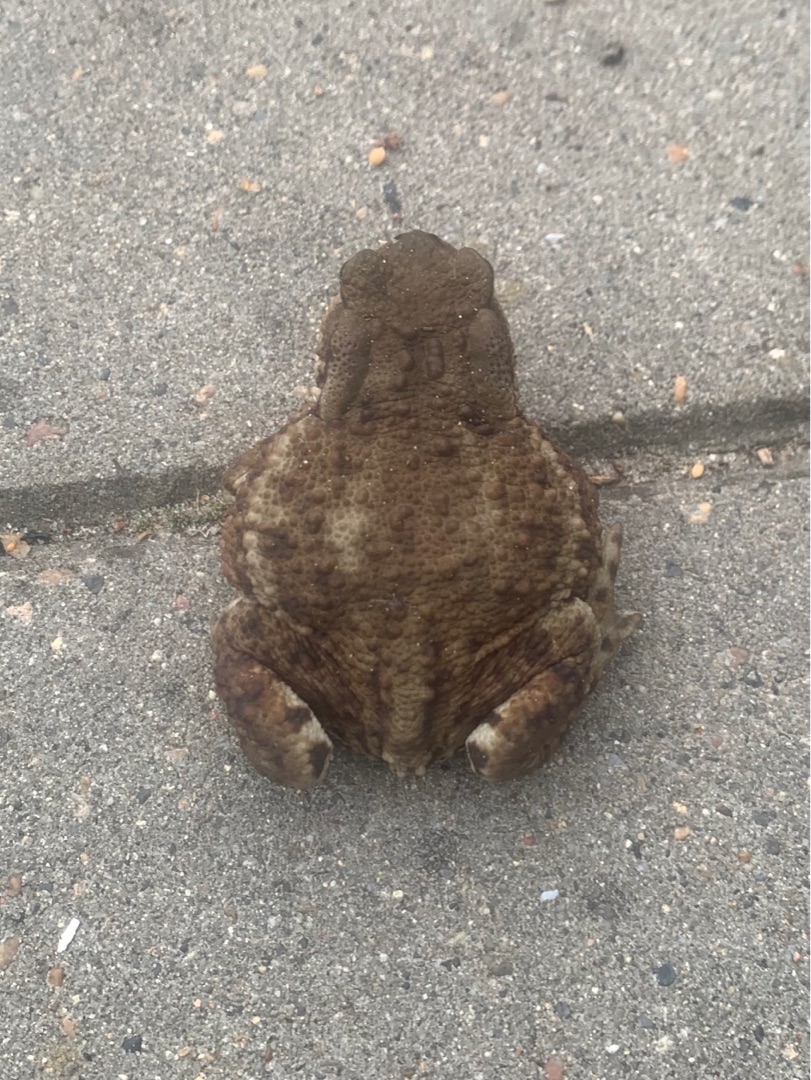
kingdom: Animalia
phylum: Chordata
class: Amphibia
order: Anura
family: Bufonidae
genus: Bufo
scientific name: Bufo bufo
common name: Skrubtudse
